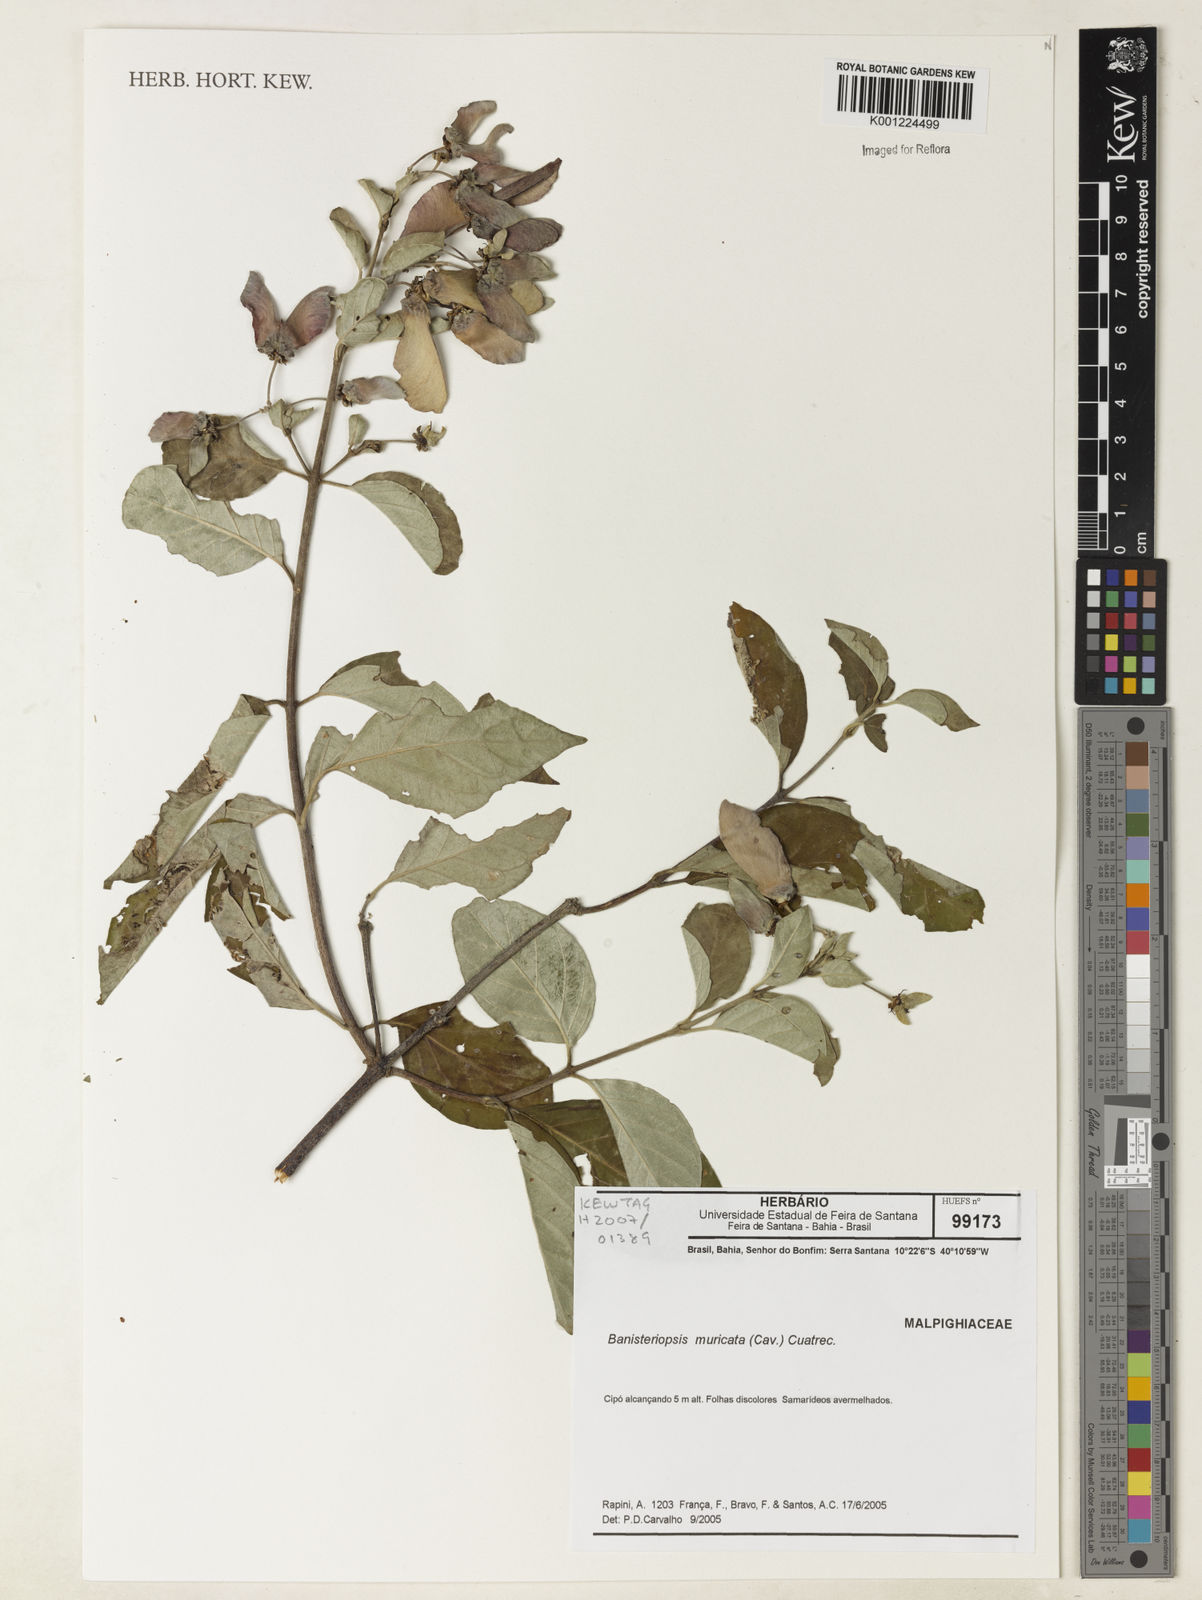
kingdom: Plantae
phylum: Tracheophyta
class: Magnoliopsida
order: Malpighiales
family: Malpighiaceae
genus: Banisteriopsis
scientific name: Banisteriopsis muricata
